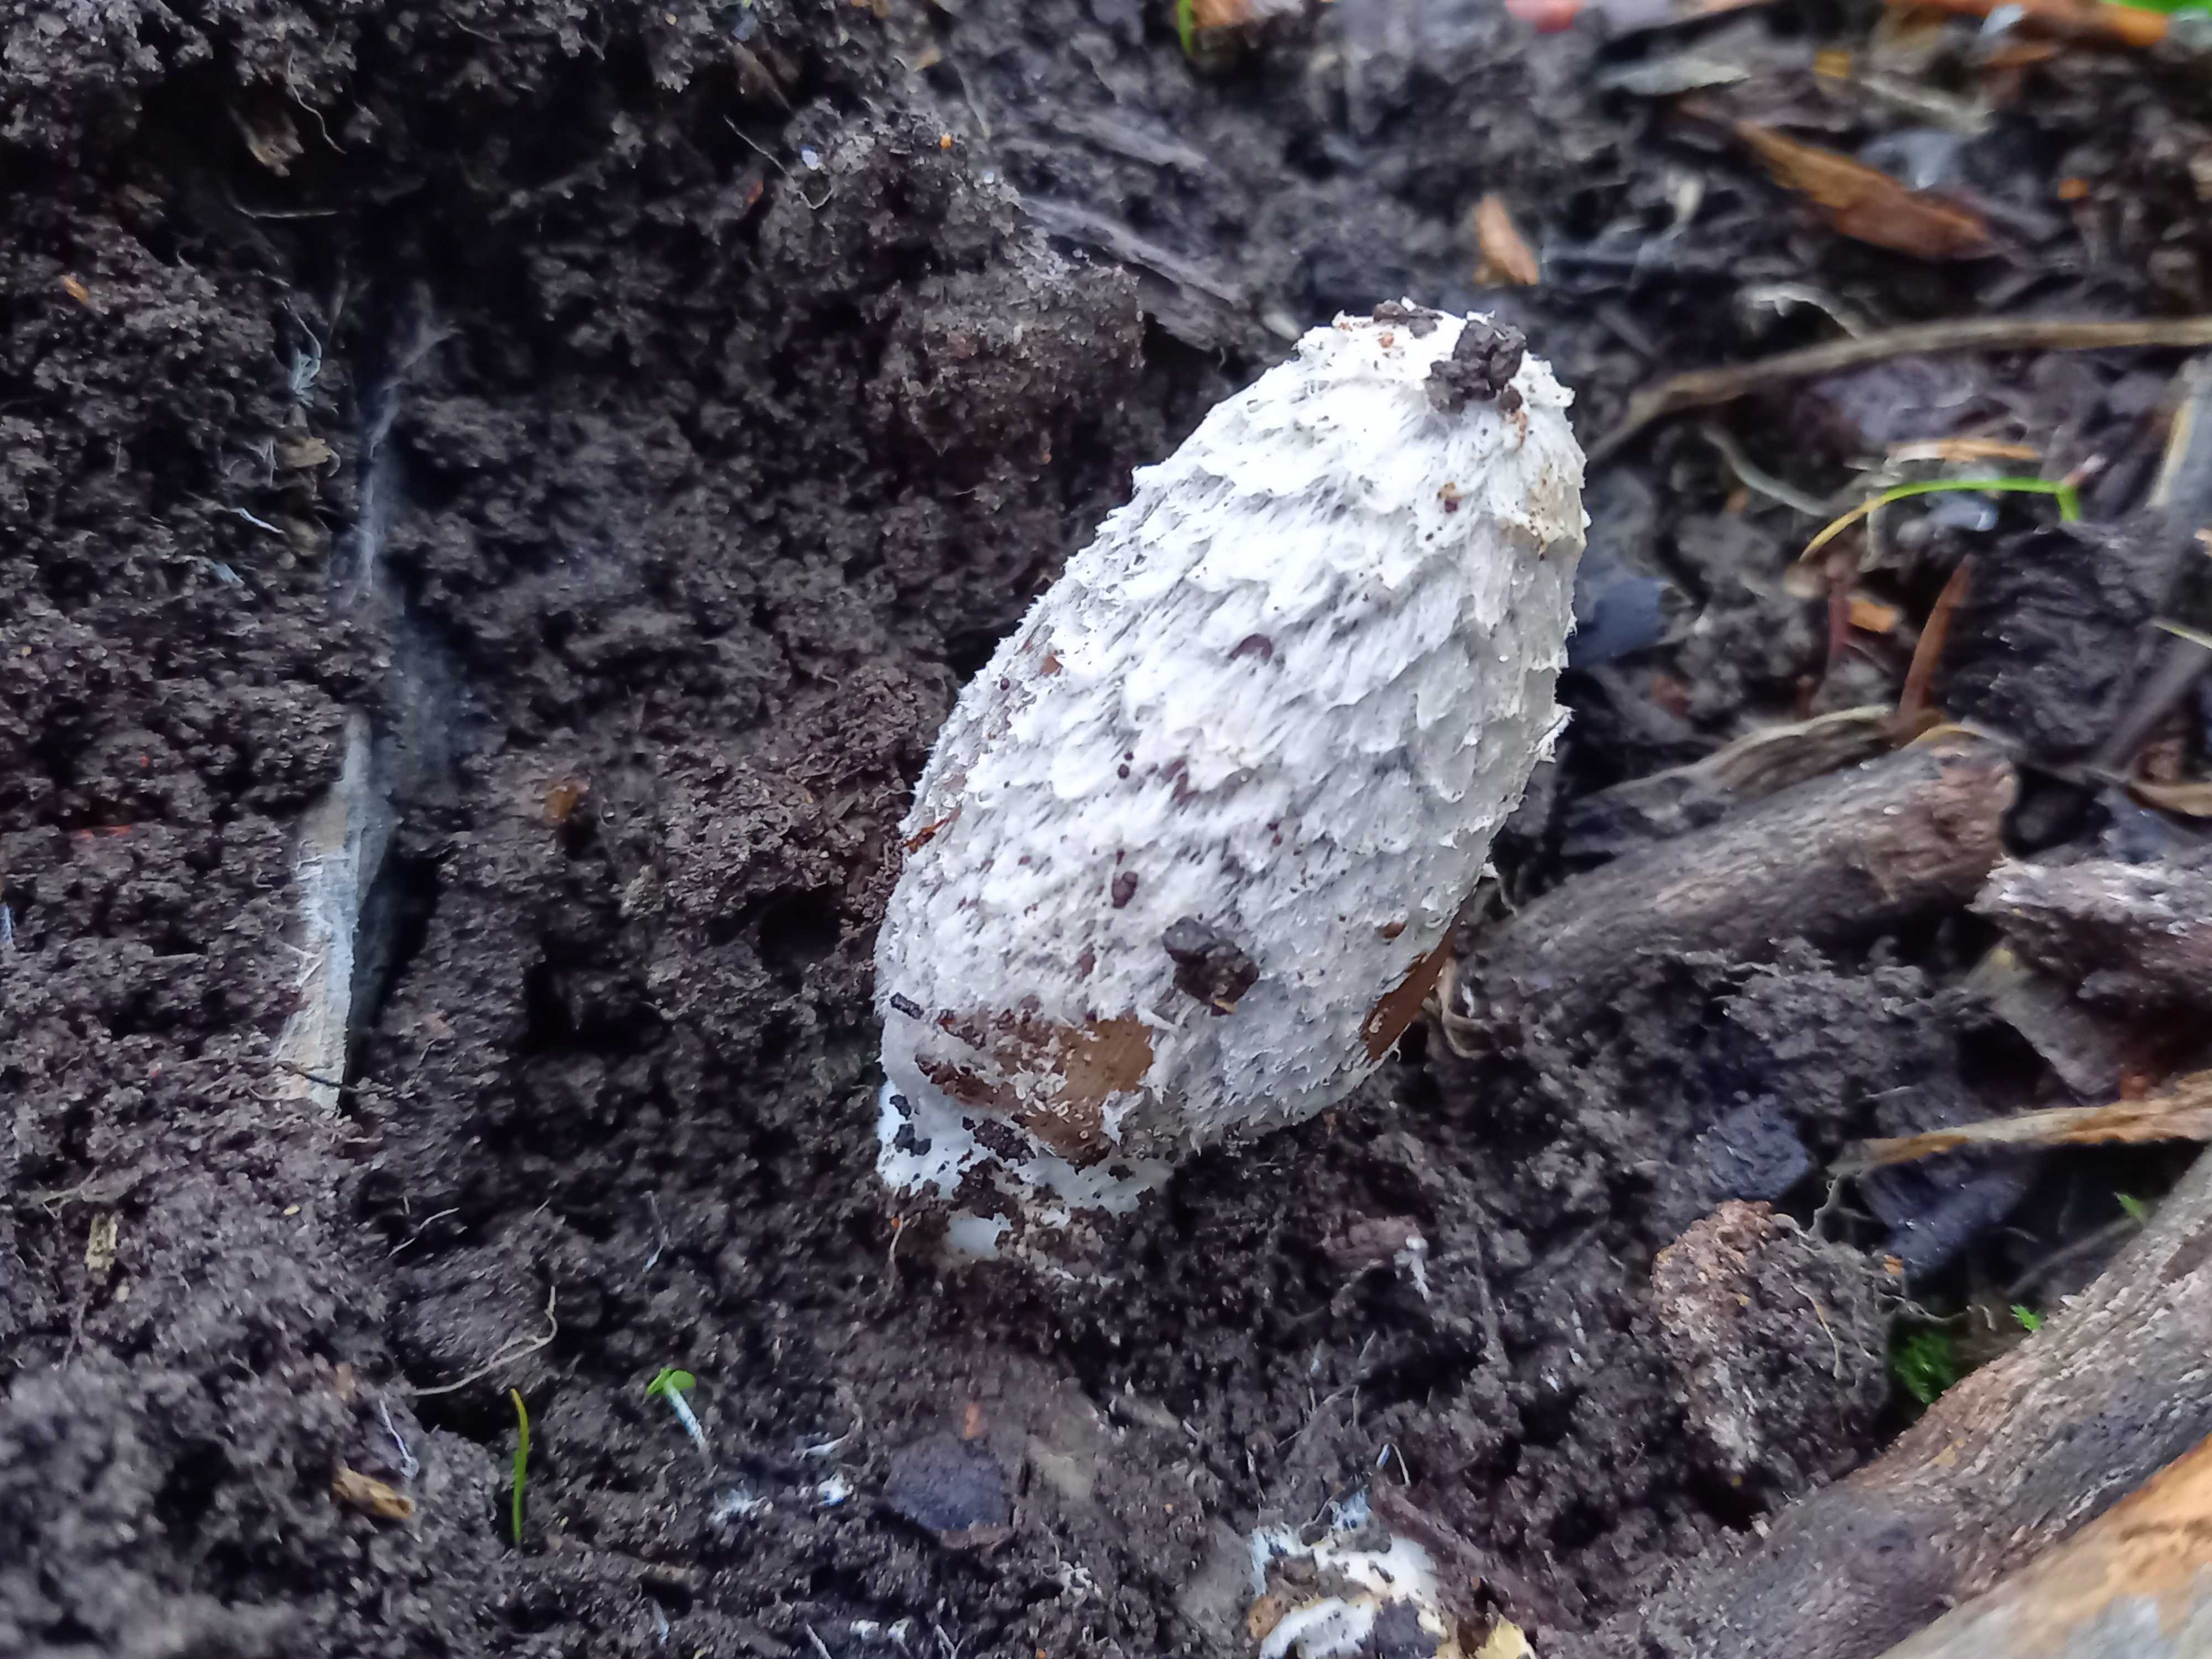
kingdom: Fungi
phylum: Basidiomycota
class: Agaricomycetes
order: Agaricales
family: Agaricaceae
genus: Coprinus
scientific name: Coprinus comatus
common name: stor parykhat
